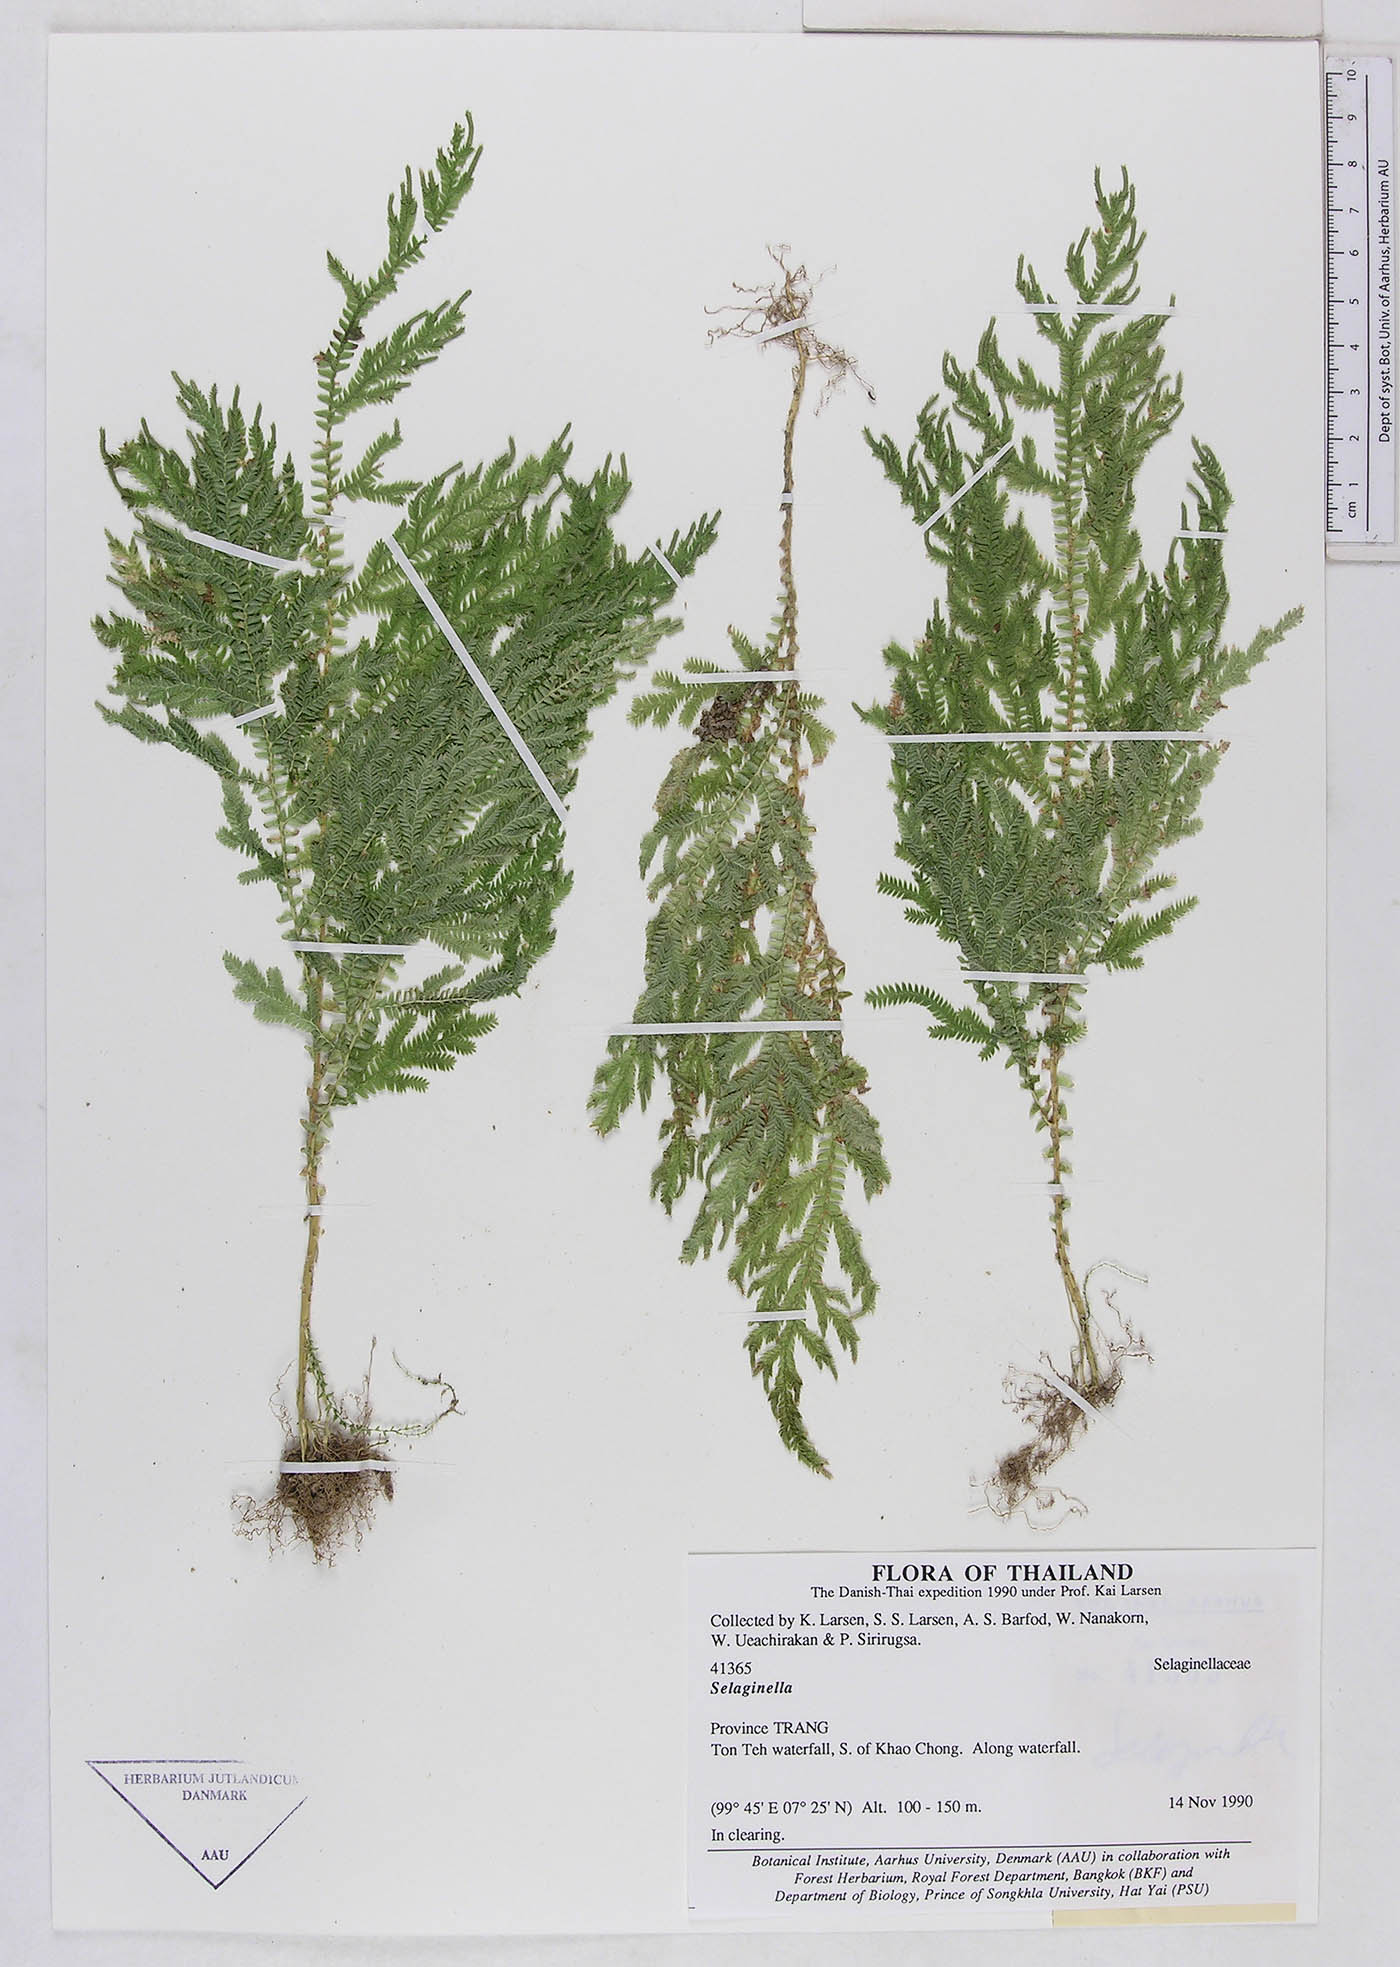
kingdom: Plantae
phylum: Tracheophyta
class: Lycopodiopsida
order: Selaginellales
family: Selaginellaceae
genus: Selaginella
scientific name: Selaginella
